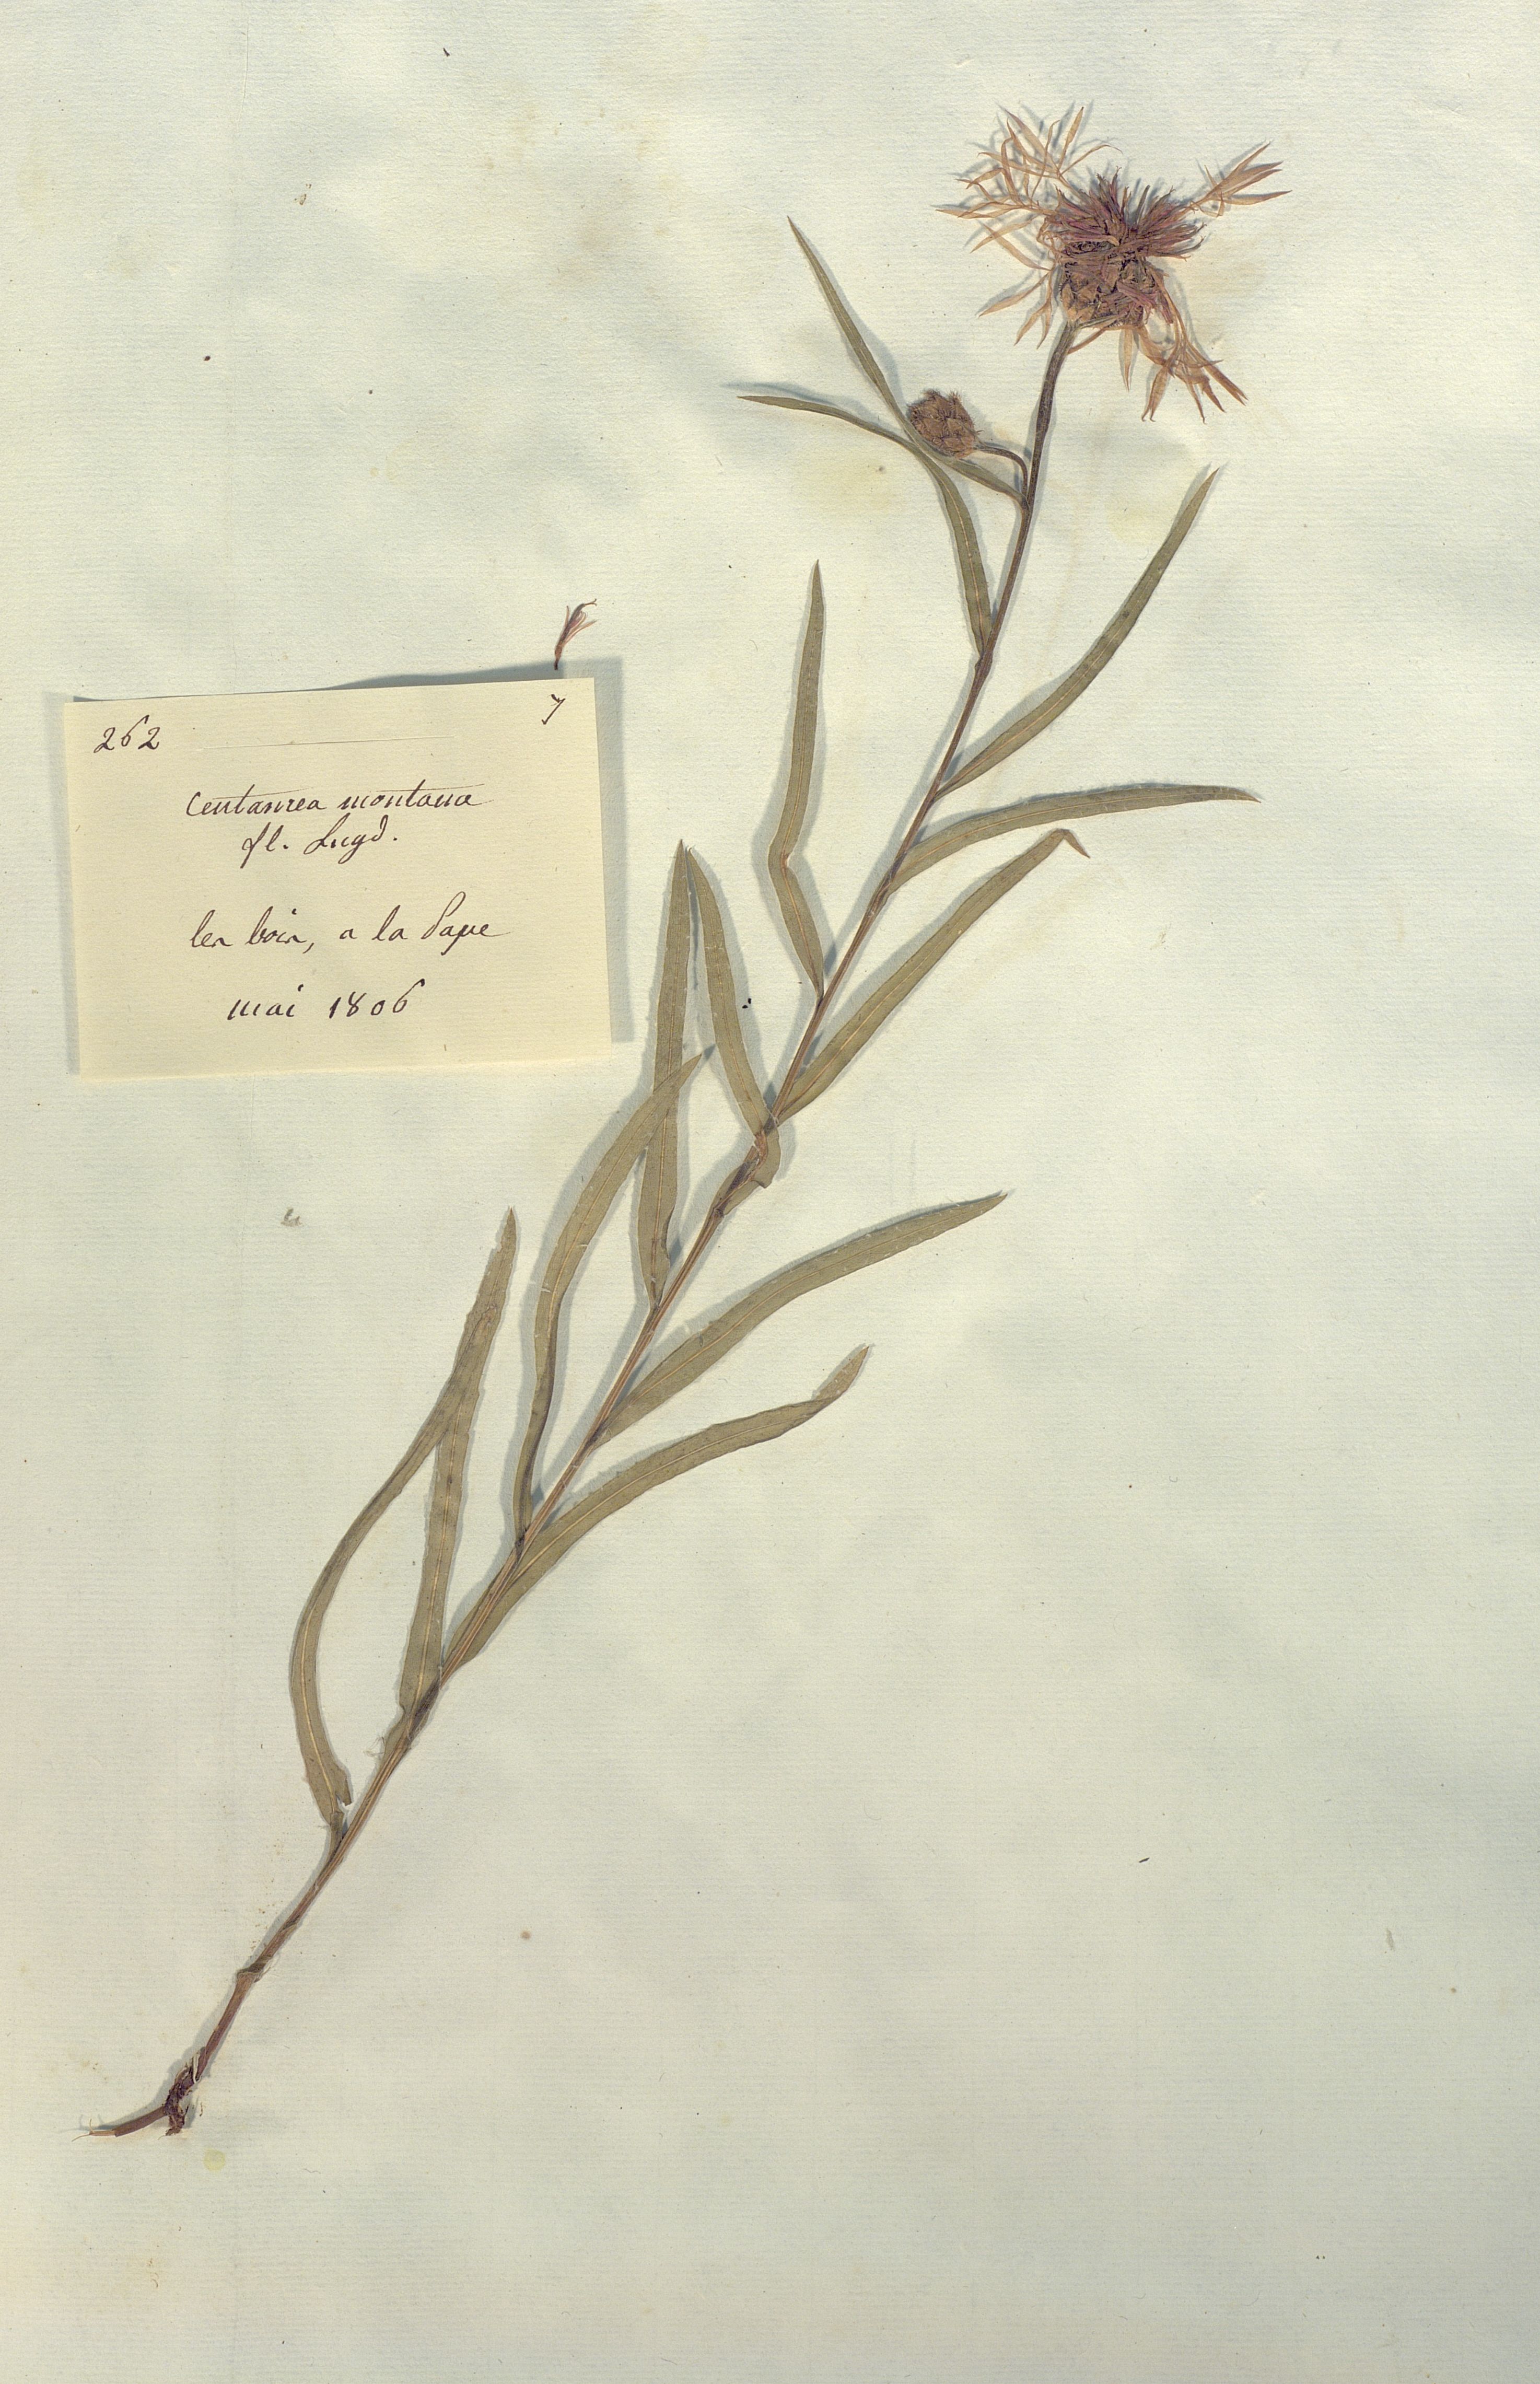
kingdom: Plantae
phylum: Tracheophyta
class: Magnoliopsida
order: Asterales
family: Asteraceae
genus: Centaurea
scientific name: Centaurea montana
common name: Perennial cornflower
